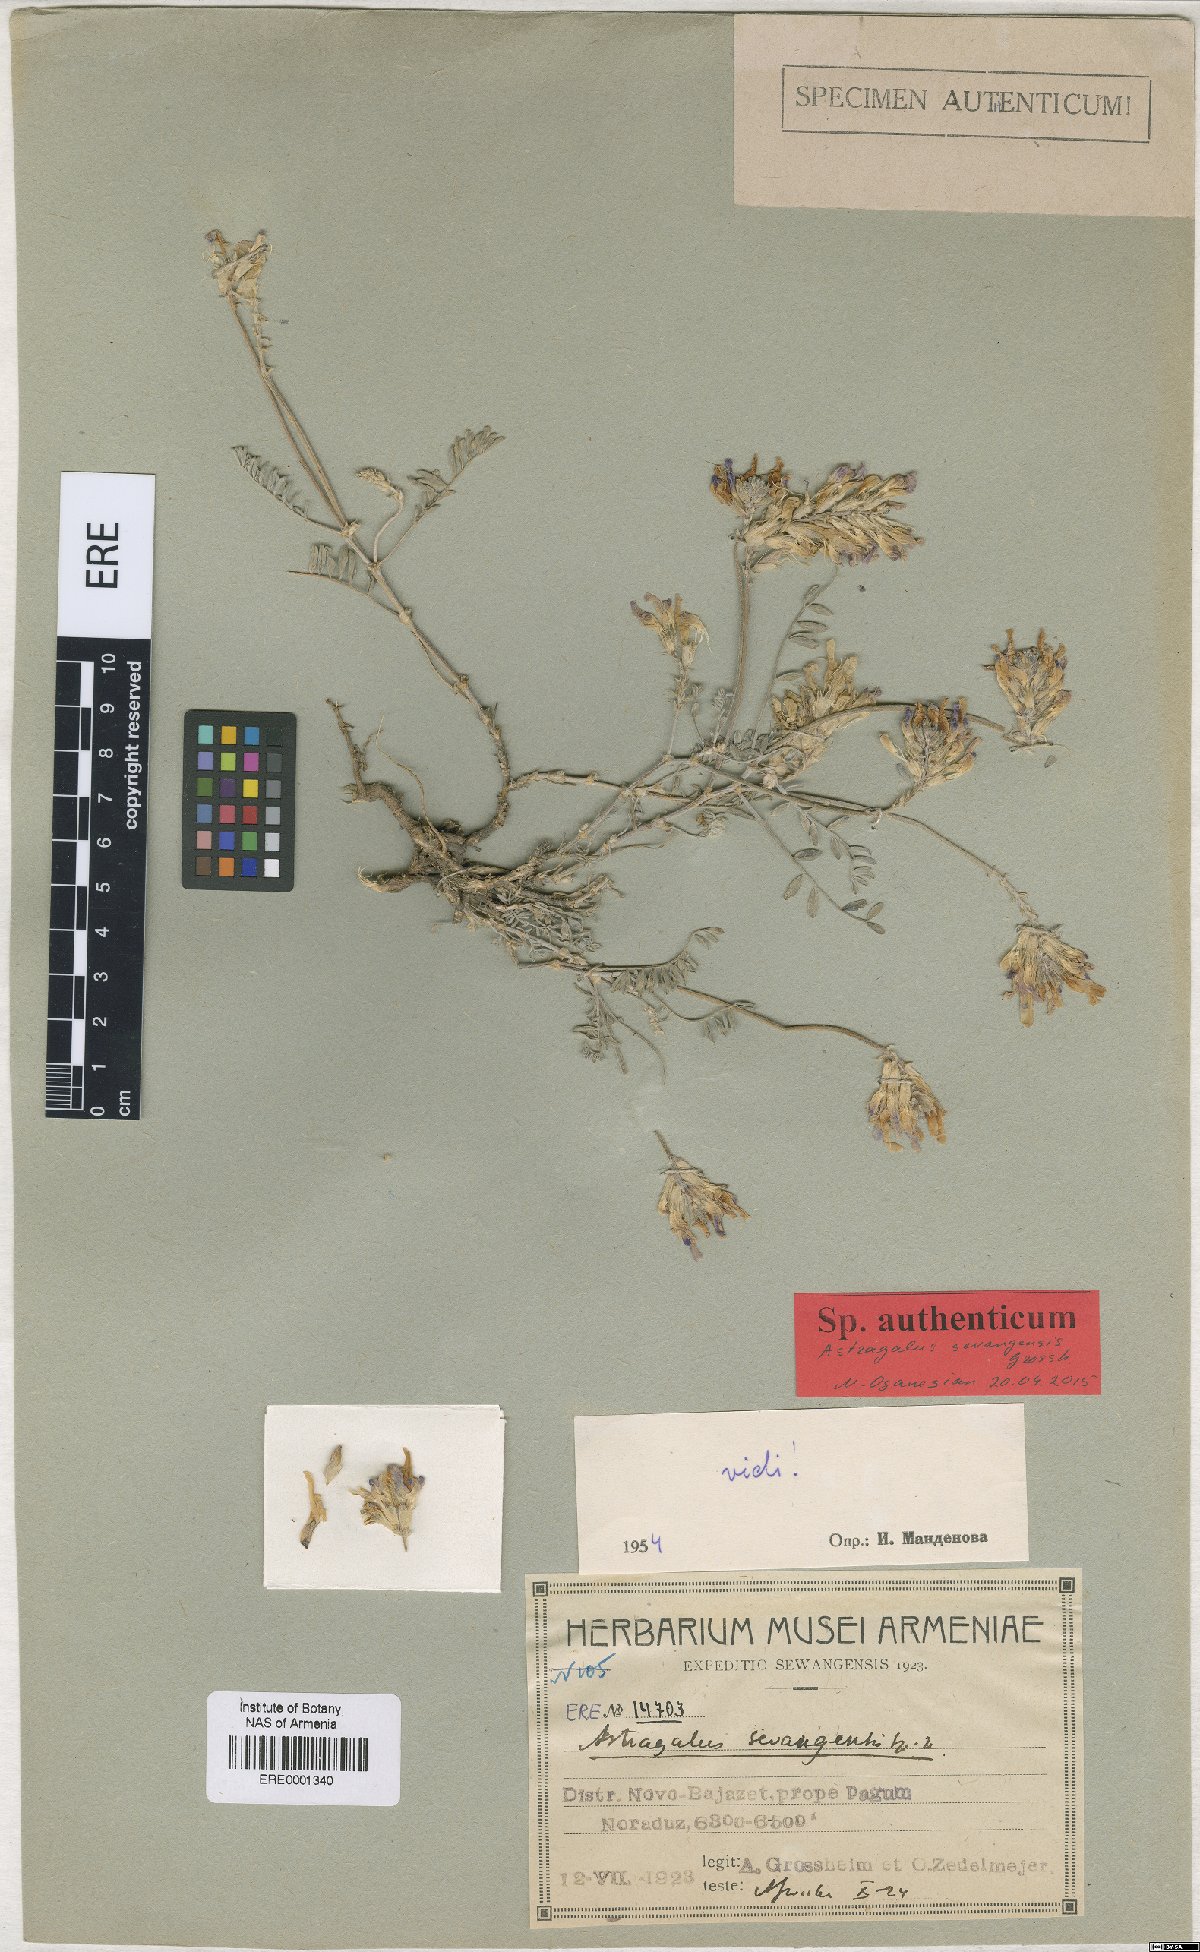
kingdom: Plantae
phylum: Tracheophyta
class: Magnoliopsida
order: Fabales
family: Fabaceae
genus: Astragalus
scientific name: Astragalus sevangensis
